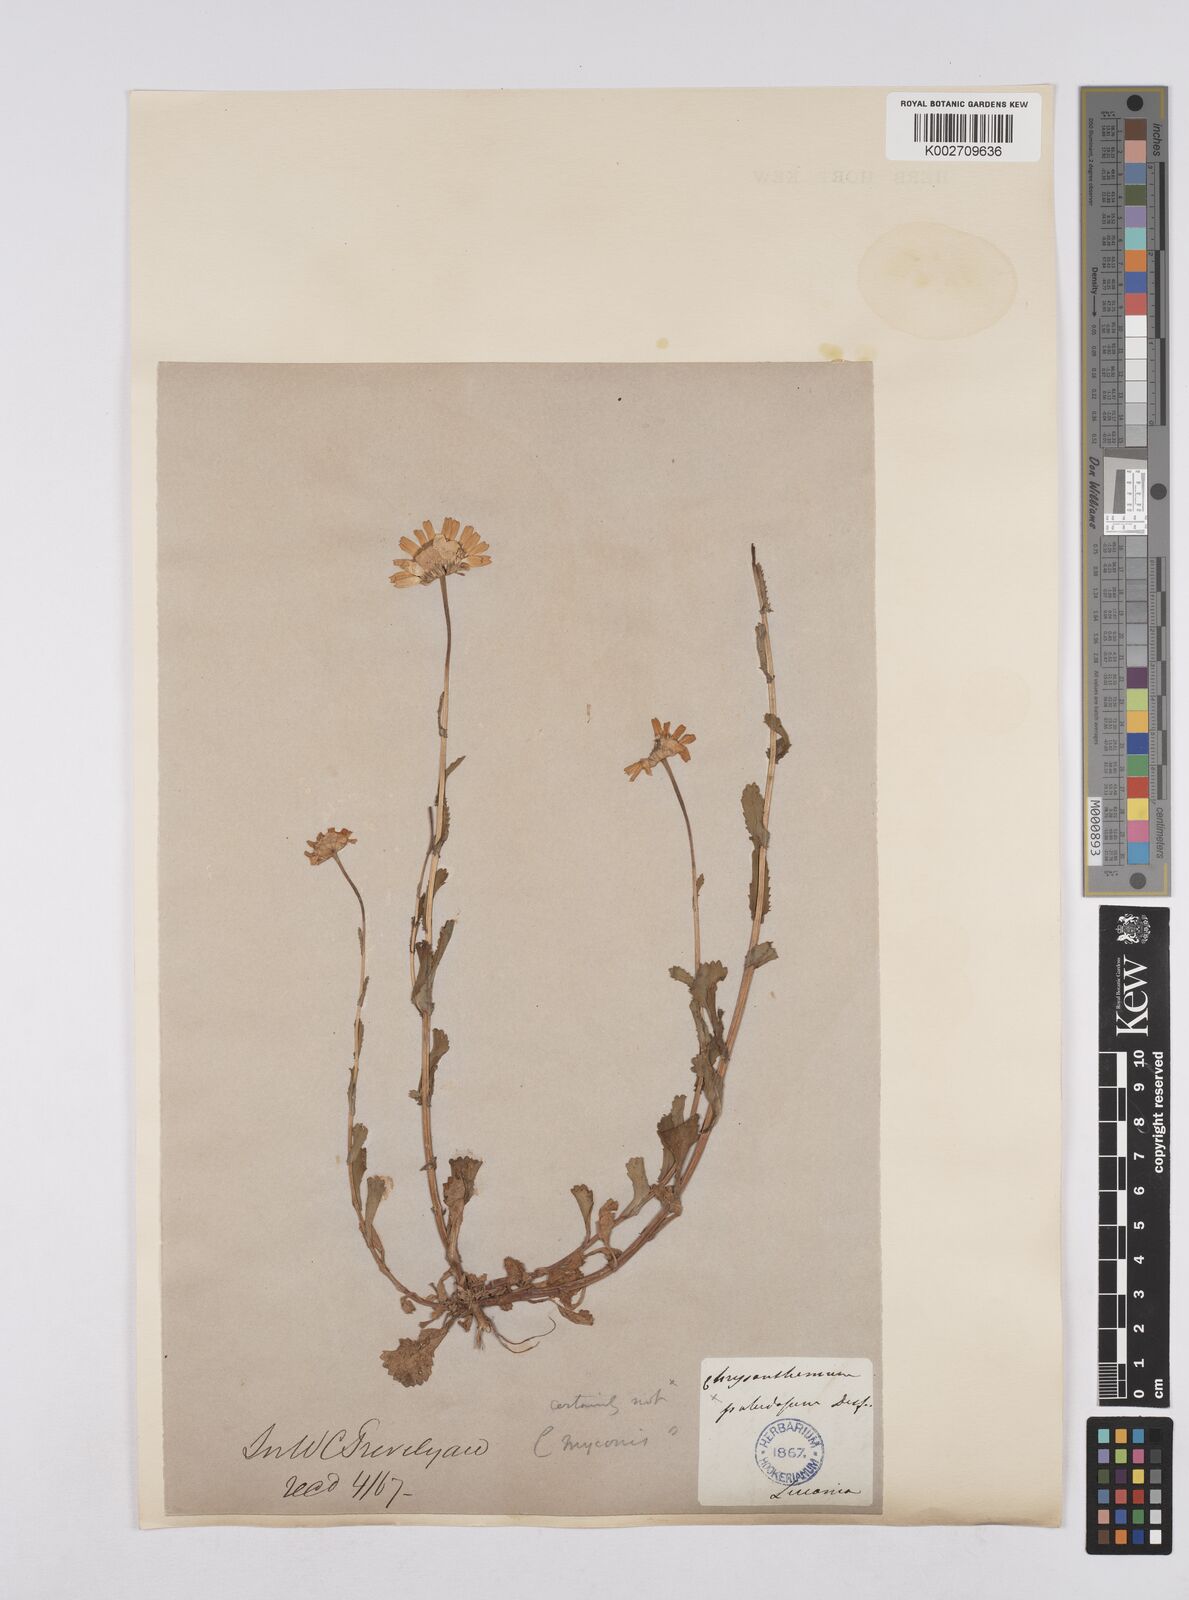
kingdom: Plantae
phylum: Tracheophyta
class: Magnoliopsida
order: Asterales
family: Asteraceae
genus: Coleostephus
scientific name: Coleostephus myconis
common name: Mediterranean marigold
